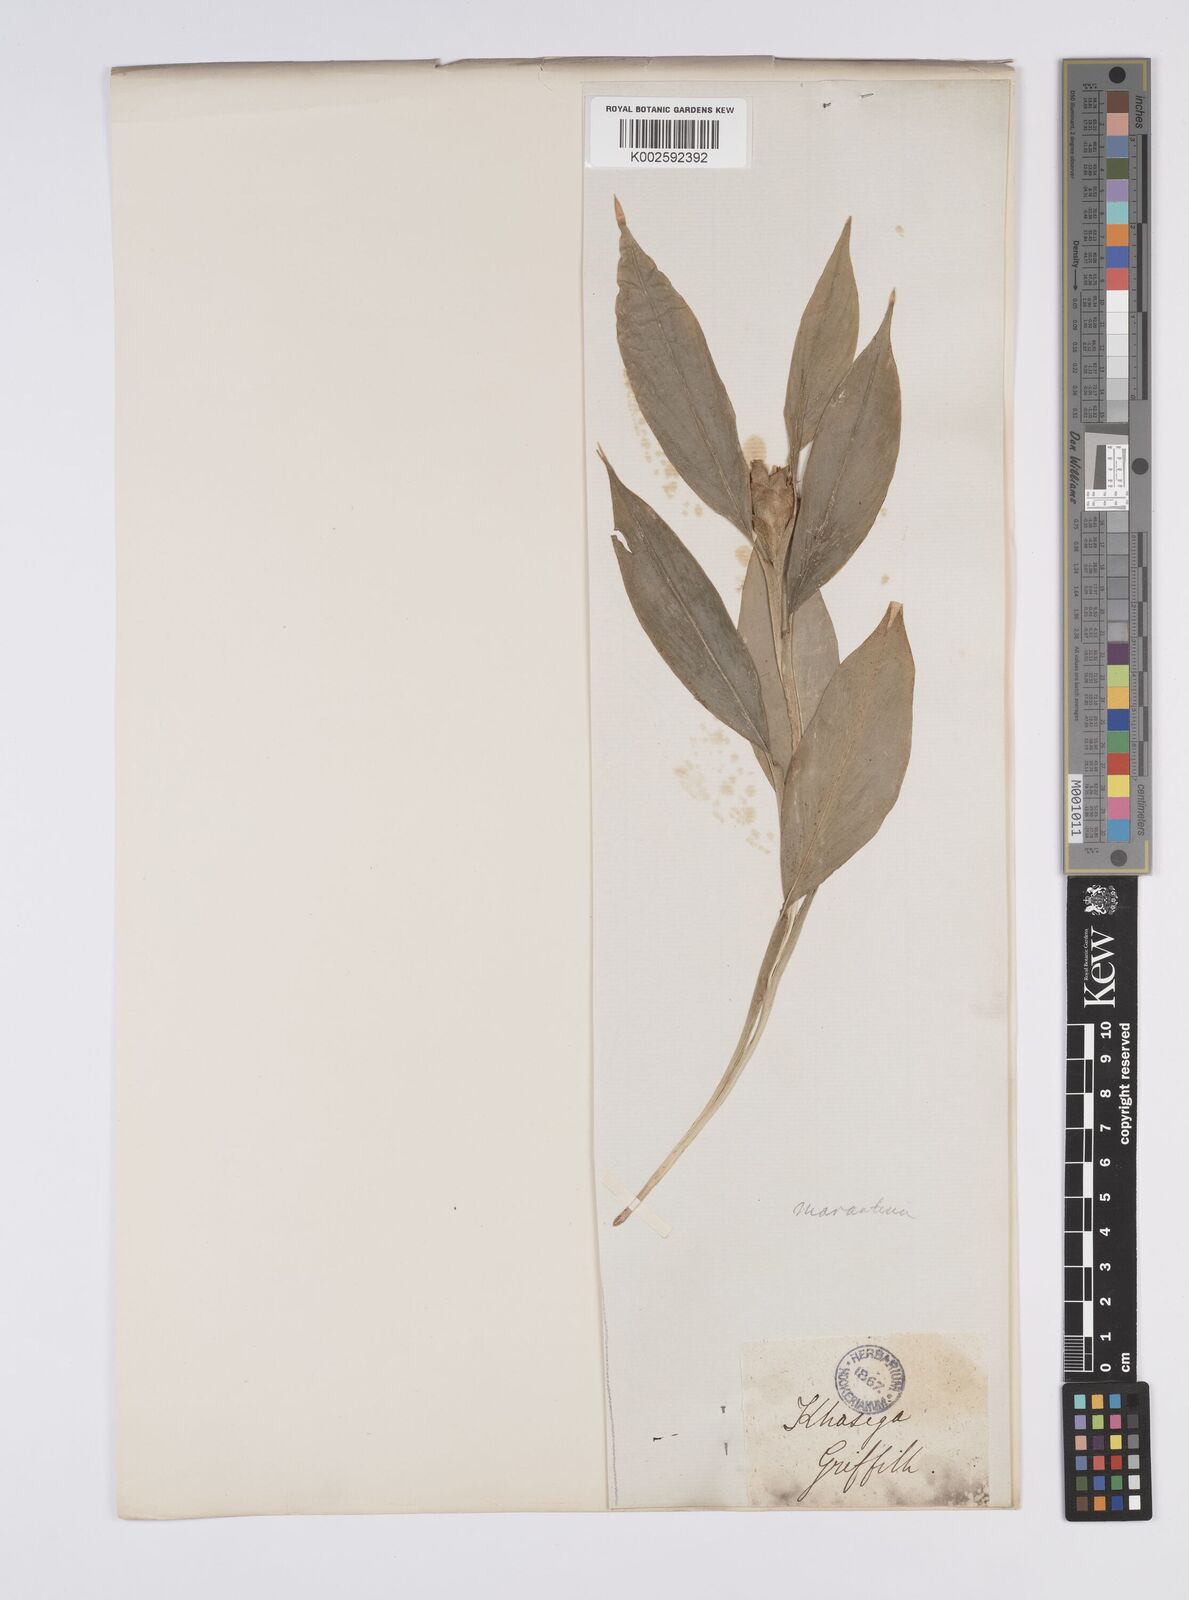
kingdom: Plantae
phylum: Tracheophyta
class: Liliopsida
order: Zingiberales
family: Zingiberaceae
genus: Globba
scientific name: Globba marantina
